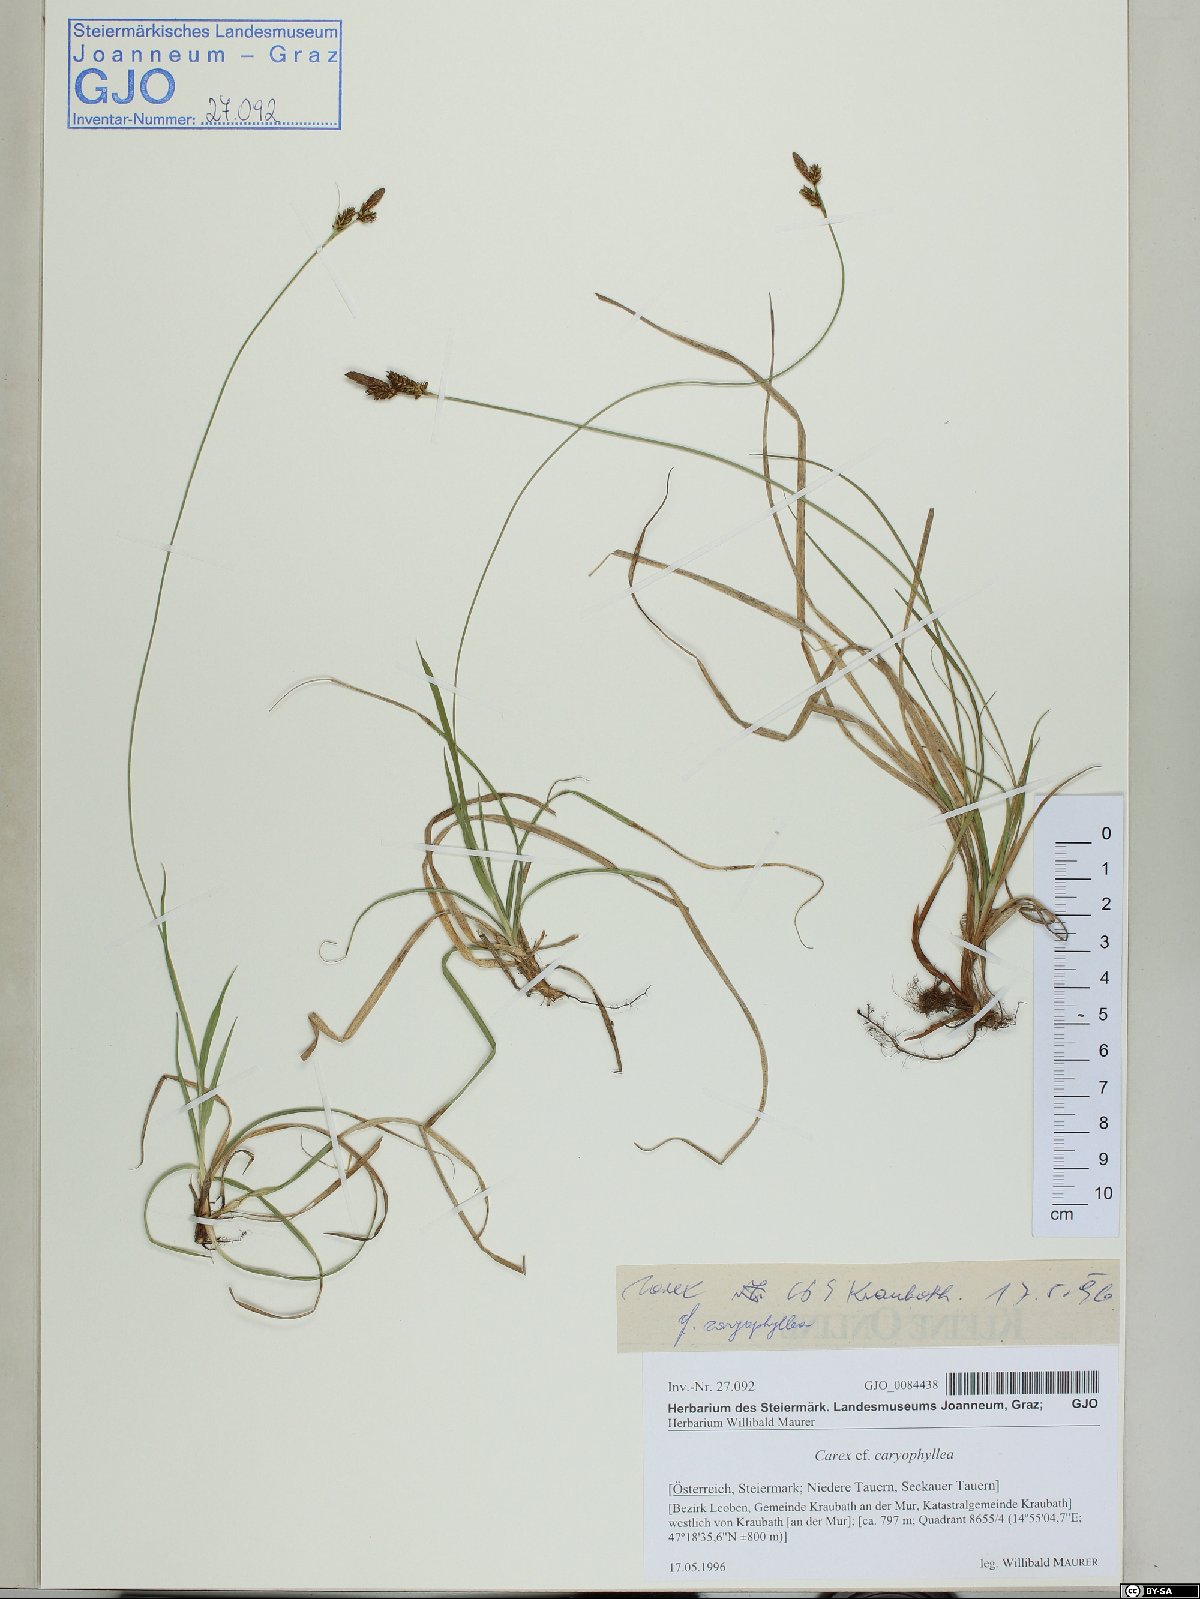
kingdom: Plantae
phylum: Tracheophyta
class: Liliopsida
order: Poales
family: Cyperaceae
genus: Carex
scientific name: Carex caryophyllea
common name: Spring sedge
